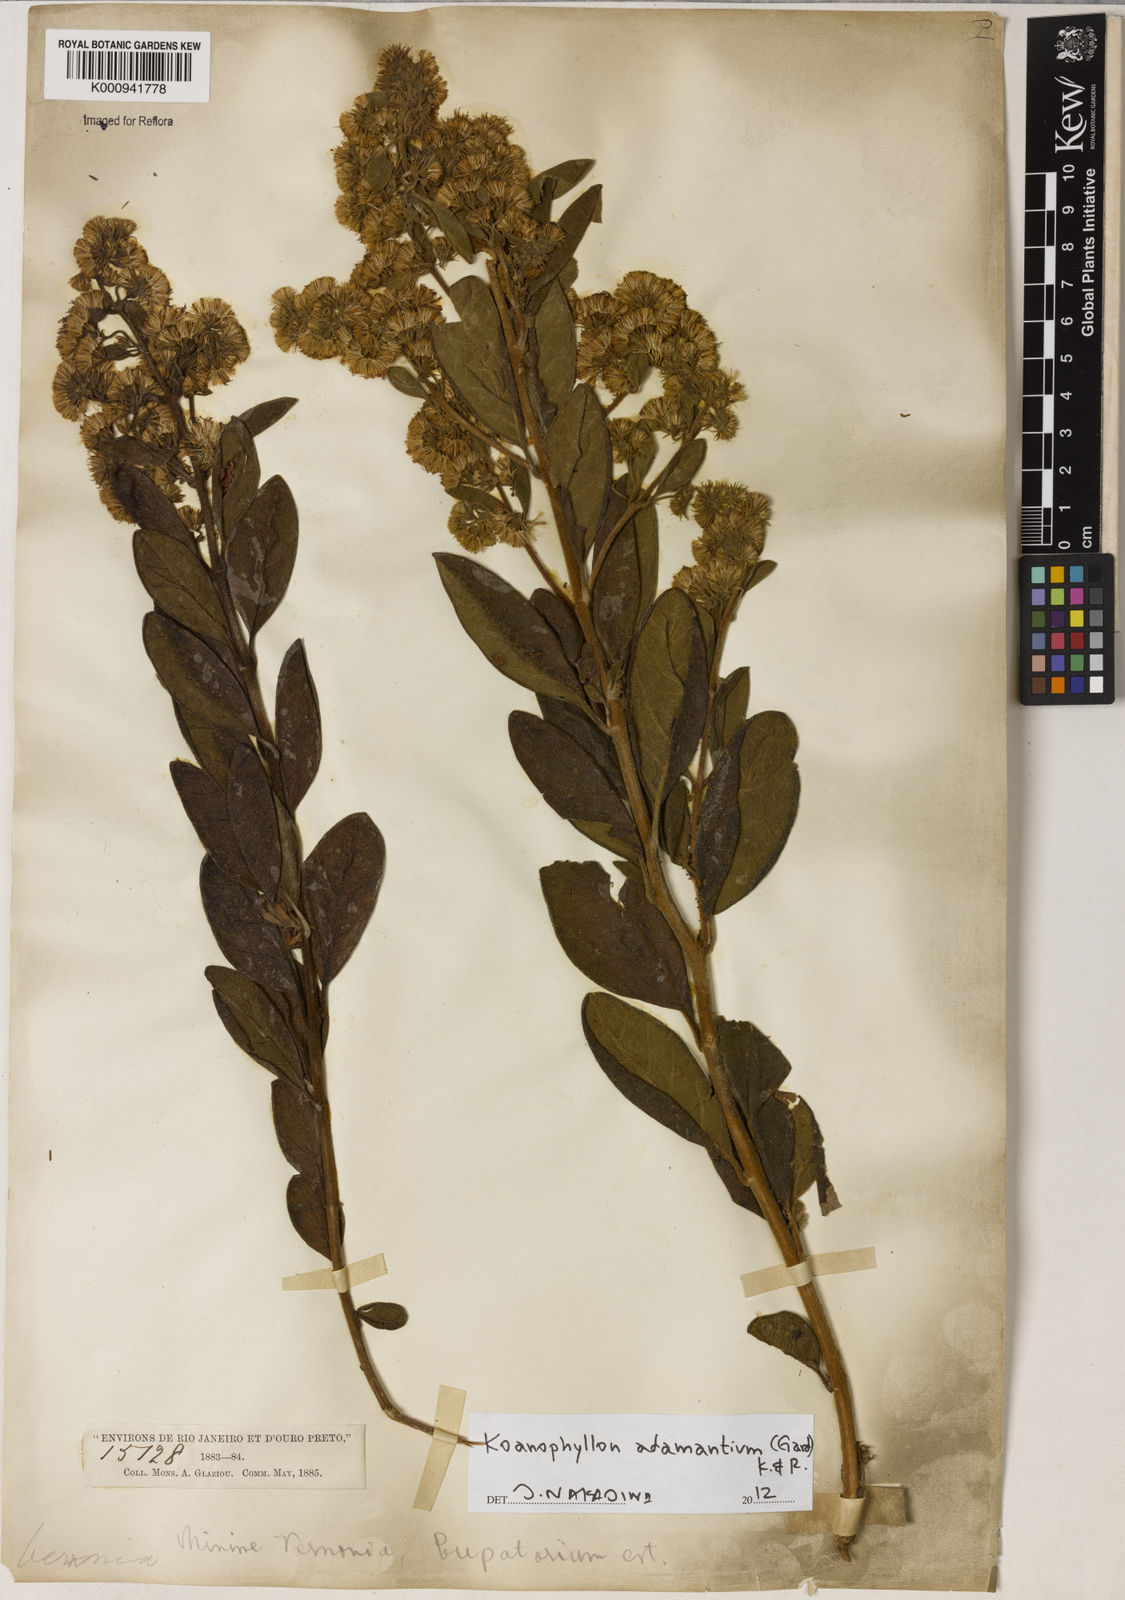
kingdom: Plantae
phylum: Tracheophyta
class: Magnoliopsida
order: Asterales
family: Asteraceae
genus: Koanophyllon
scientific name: Koanophyllon adamantium
